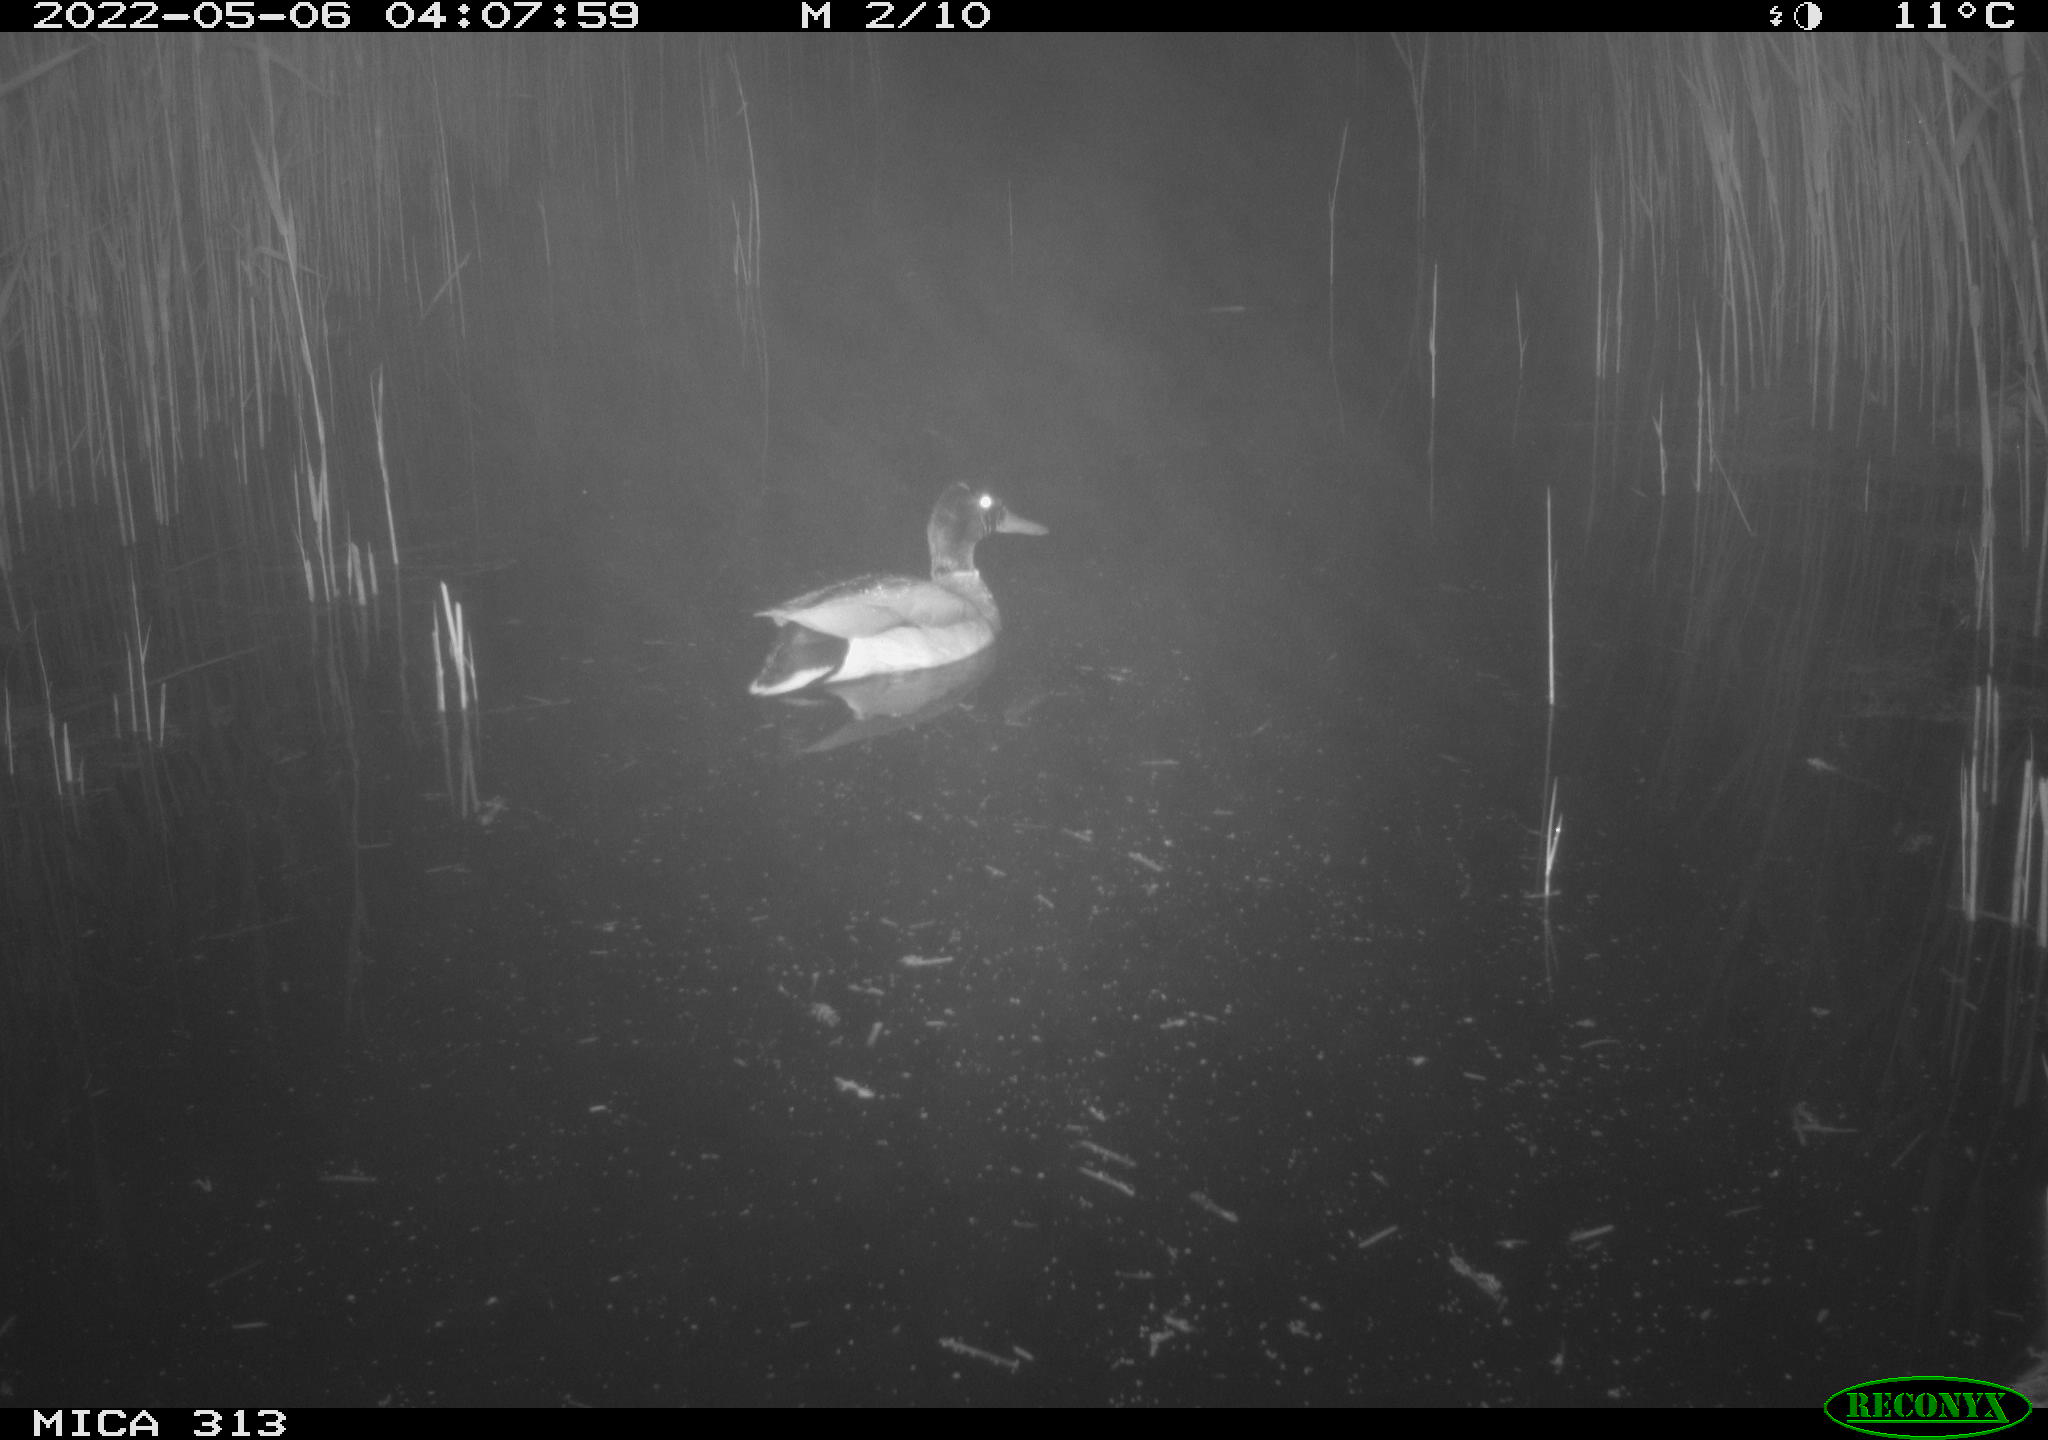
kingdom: Animalia
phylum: Chordata
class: Aves
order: Anseriformes
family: Anatidae
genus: Anas
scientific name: Anas platyrhynchos
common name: Mallard
